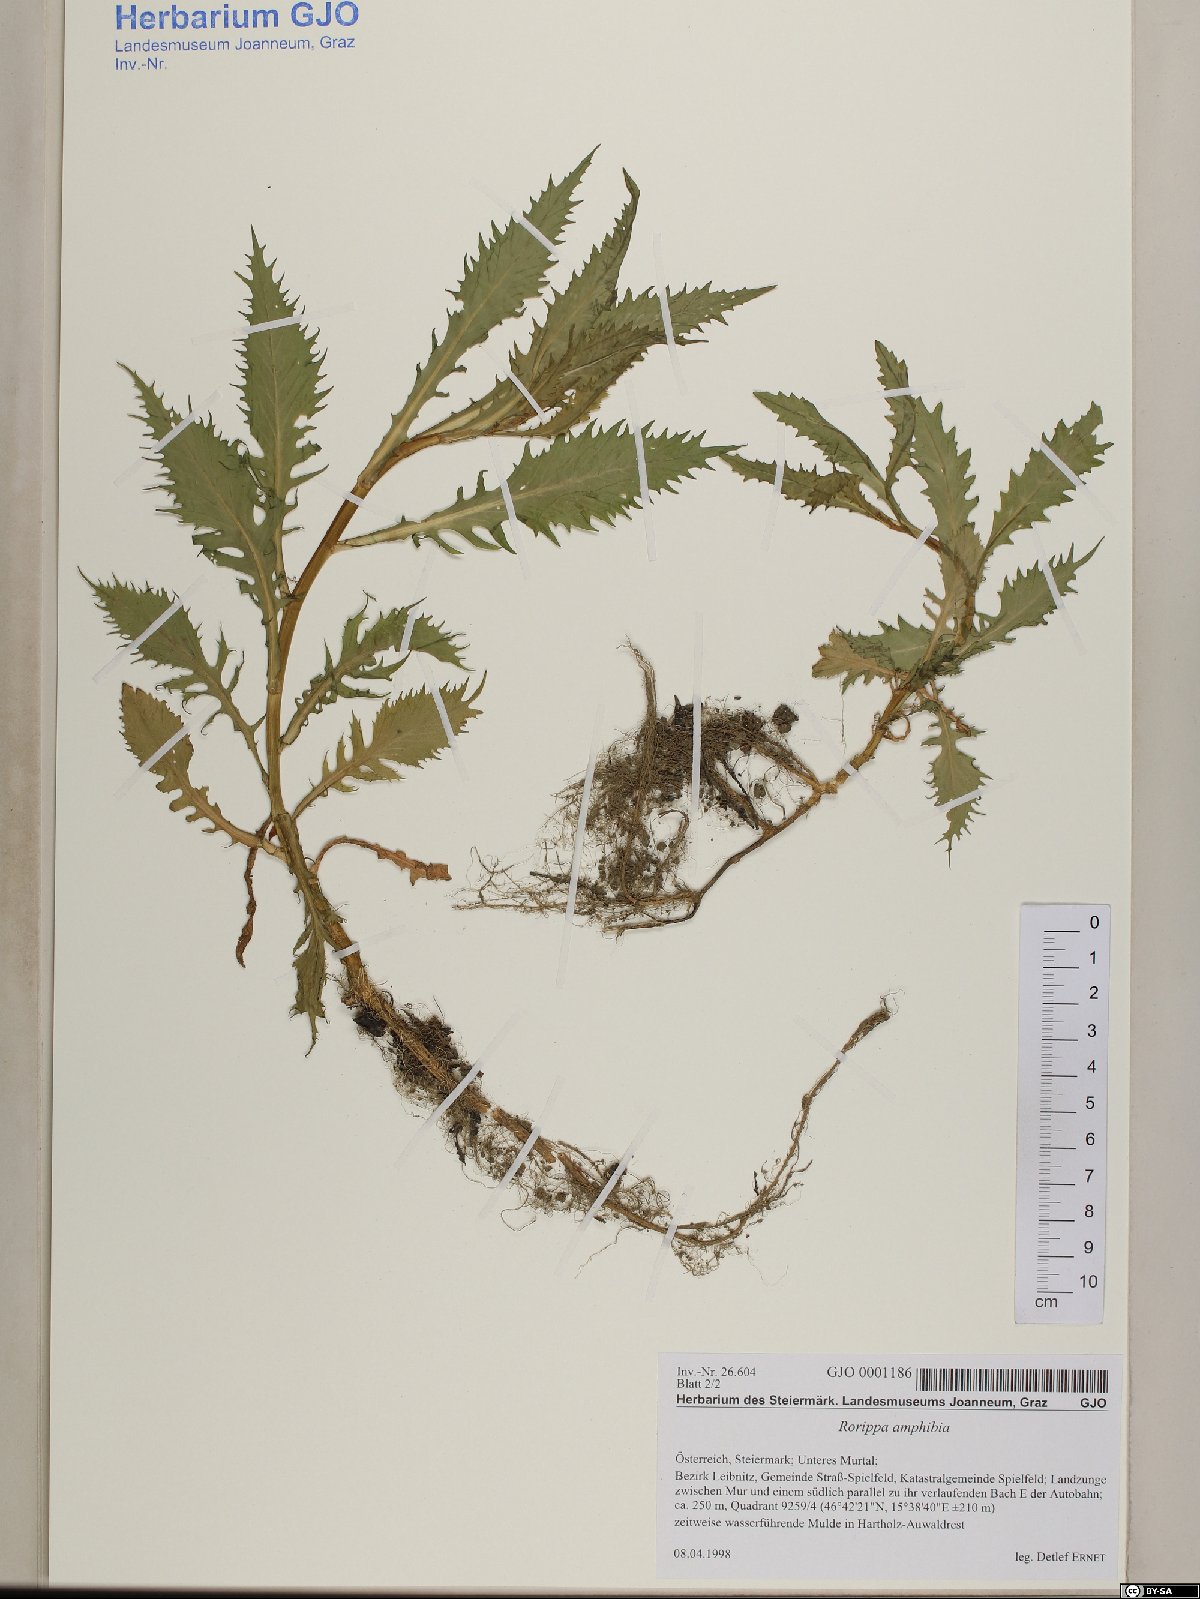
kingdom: Plantae
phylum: Tracheophyta
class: Magnoliopsida
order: Brassicales
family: Brassicaceae
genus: Rorippa
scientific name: Rorippa amphibia
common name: Great yellow-cress
